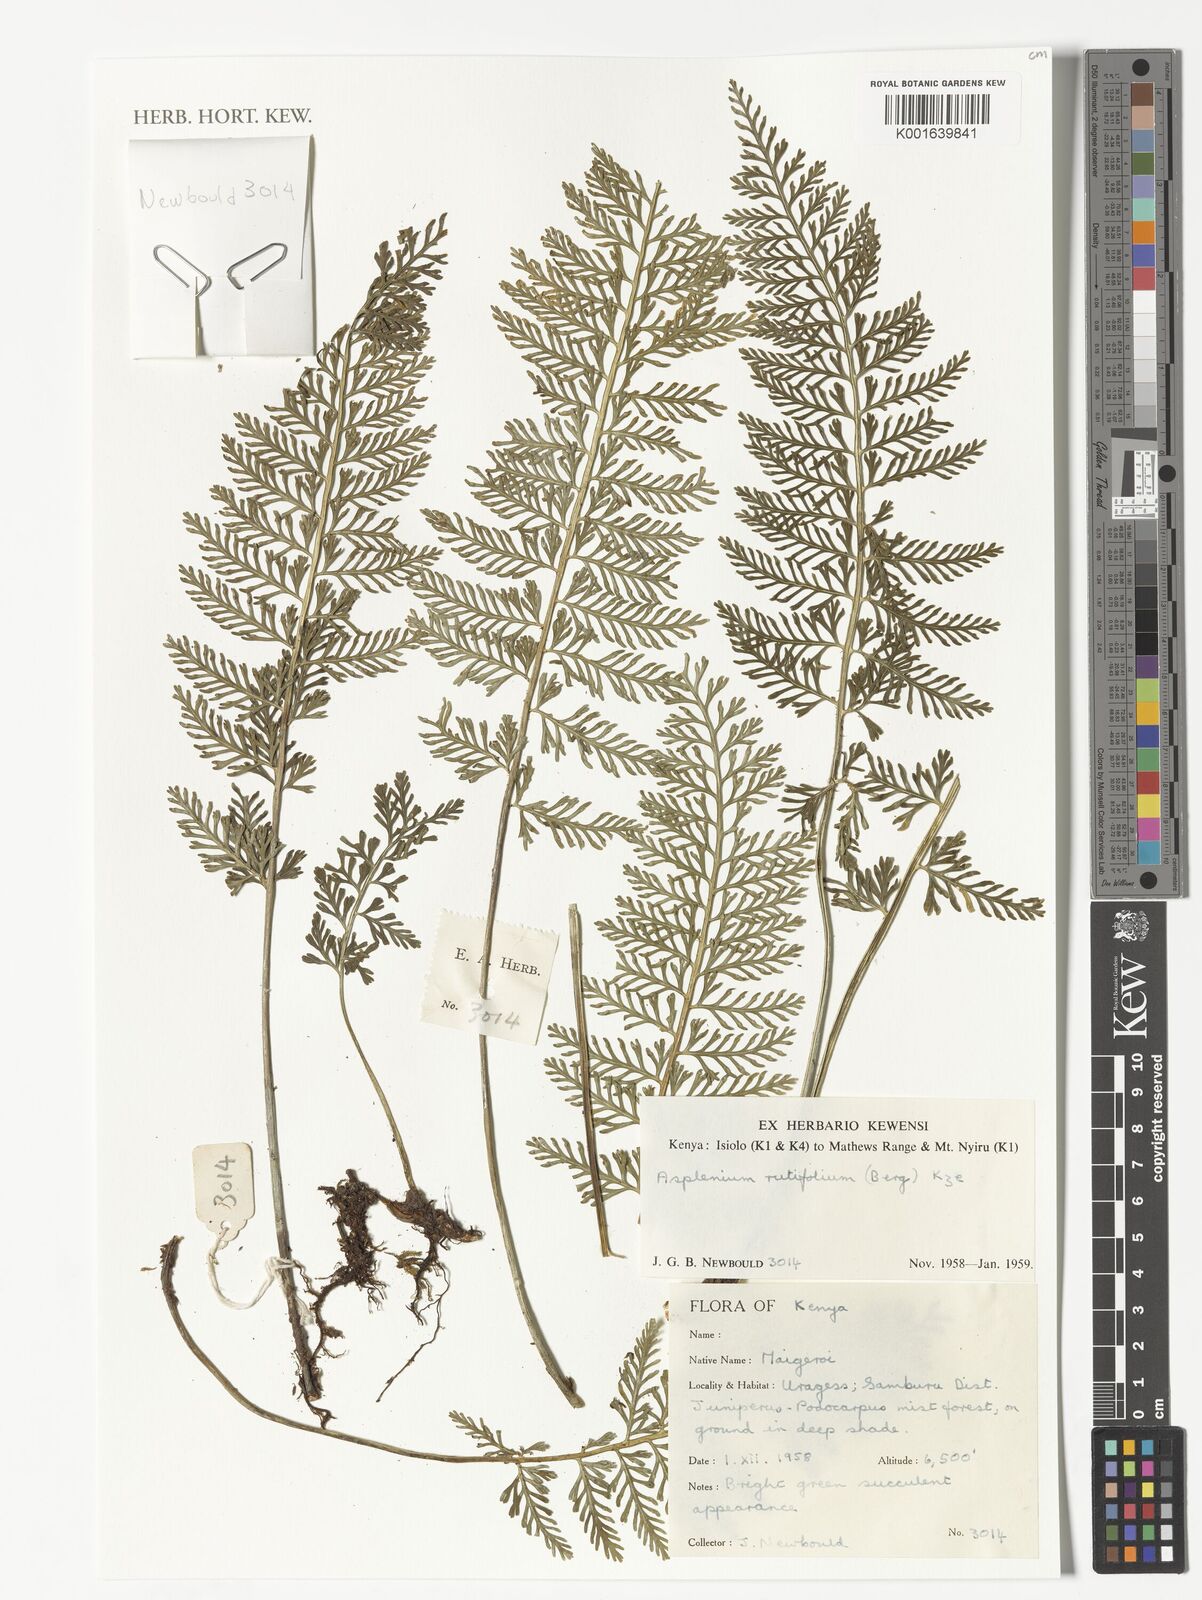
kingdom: Plantae
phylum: Tracheophyta
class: Polypodiopsida
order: Polypodiales
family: Aspleniaceae
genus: Asplenium
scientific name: Asplenium rutifolium
